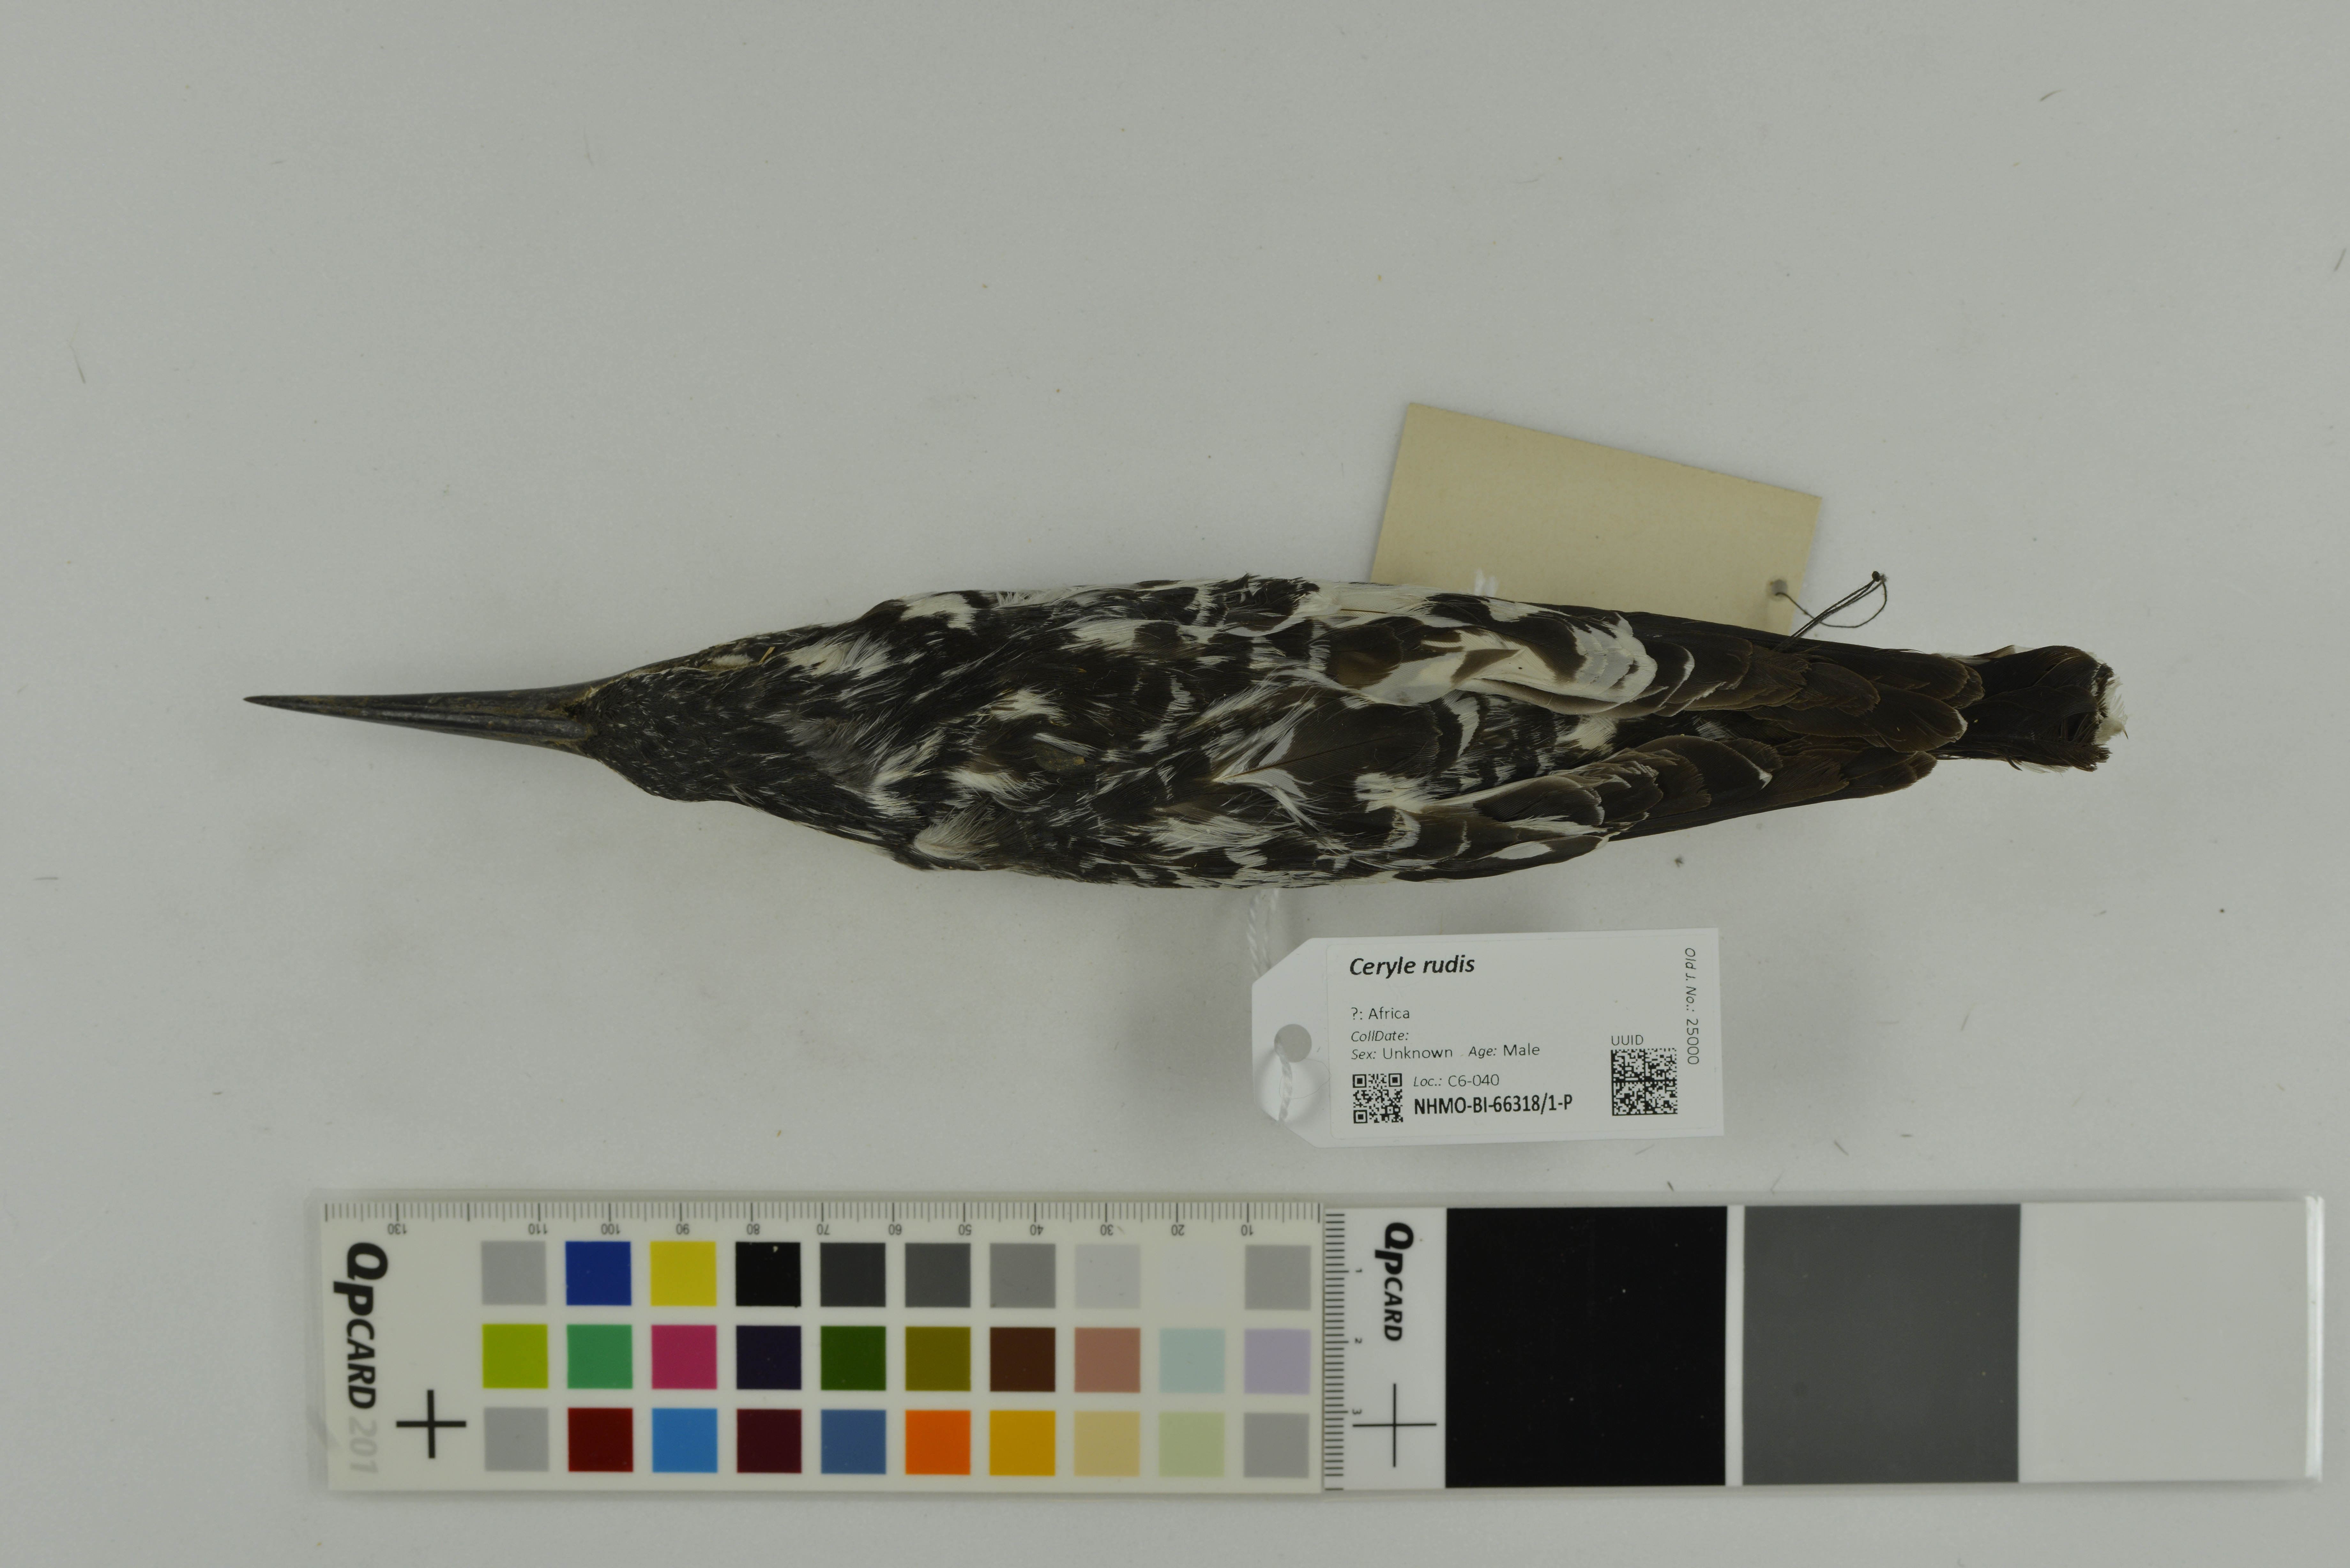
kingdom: Animalia
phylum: Chordata
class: Aves
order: Coraciiformes
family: Alcedinidae
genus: Ceryle
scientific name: Ceryle rudis
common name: Pied kingfisher
